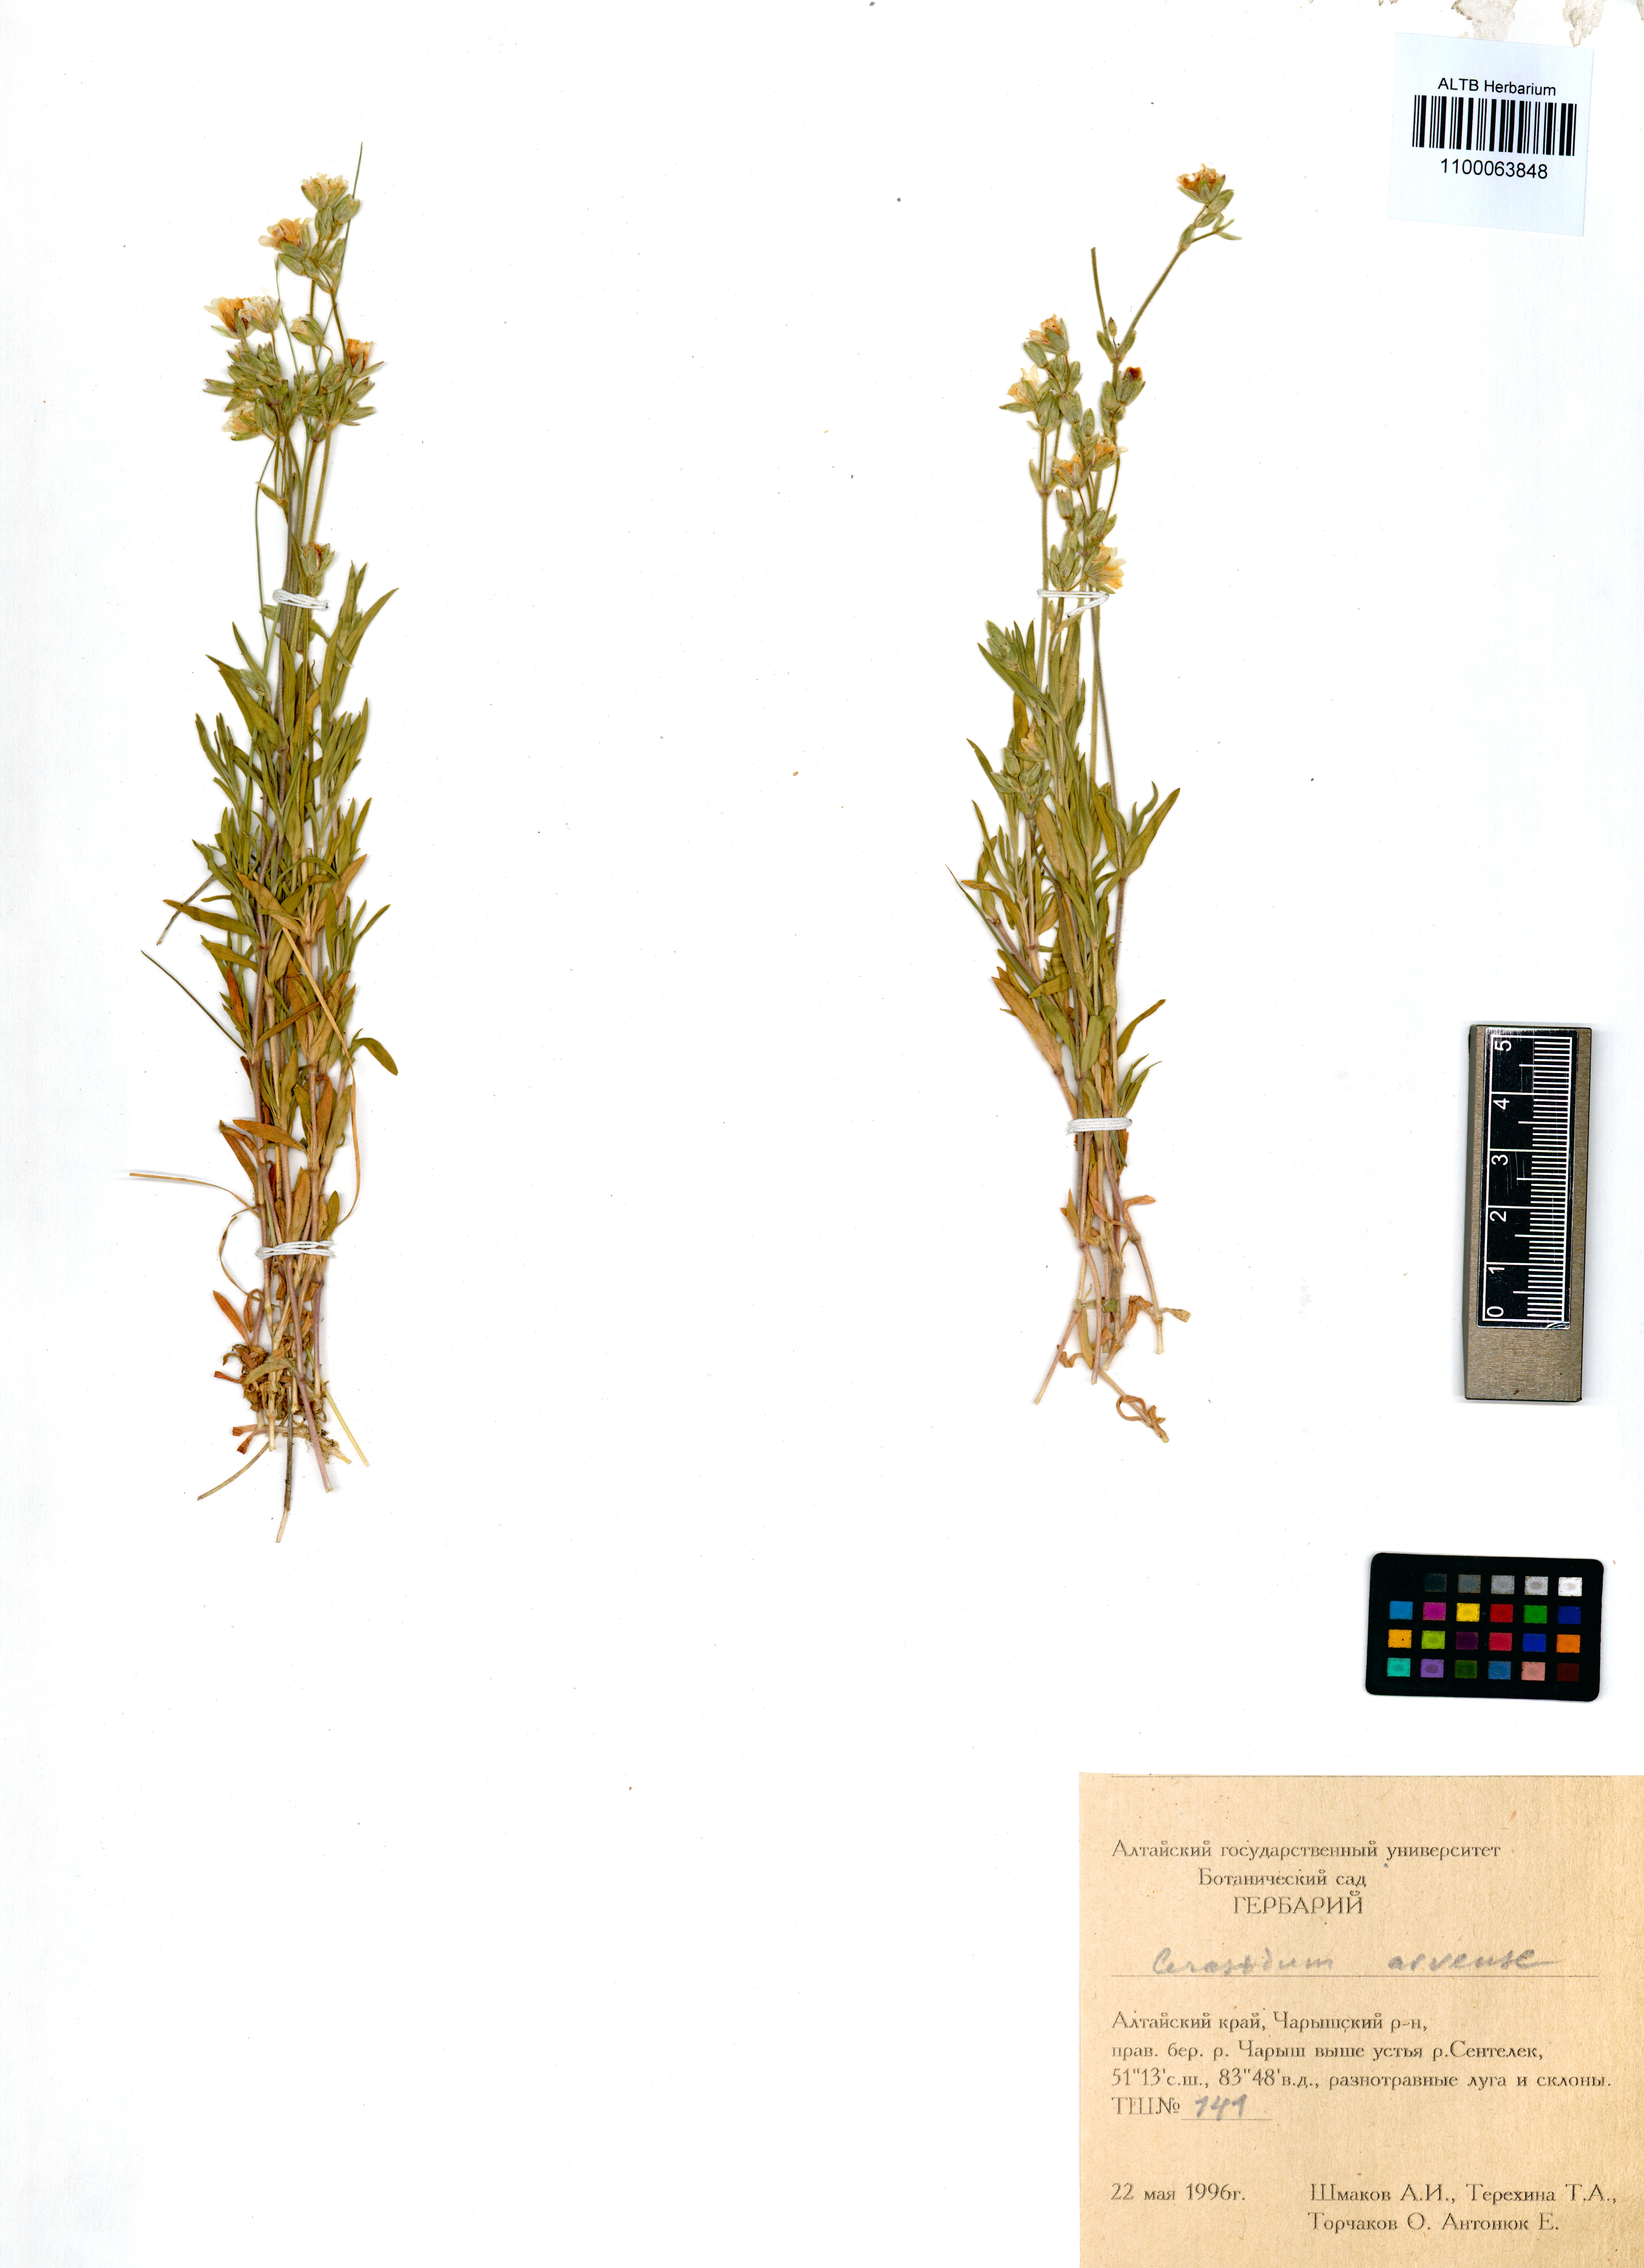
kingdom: Plantae
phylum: Tracheophyta
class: Magnoliopsida
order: Caryophyllales
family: Caryophyllaceae
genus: Cerastium
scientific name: Cerastium arvense
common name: Field mouse-ear
